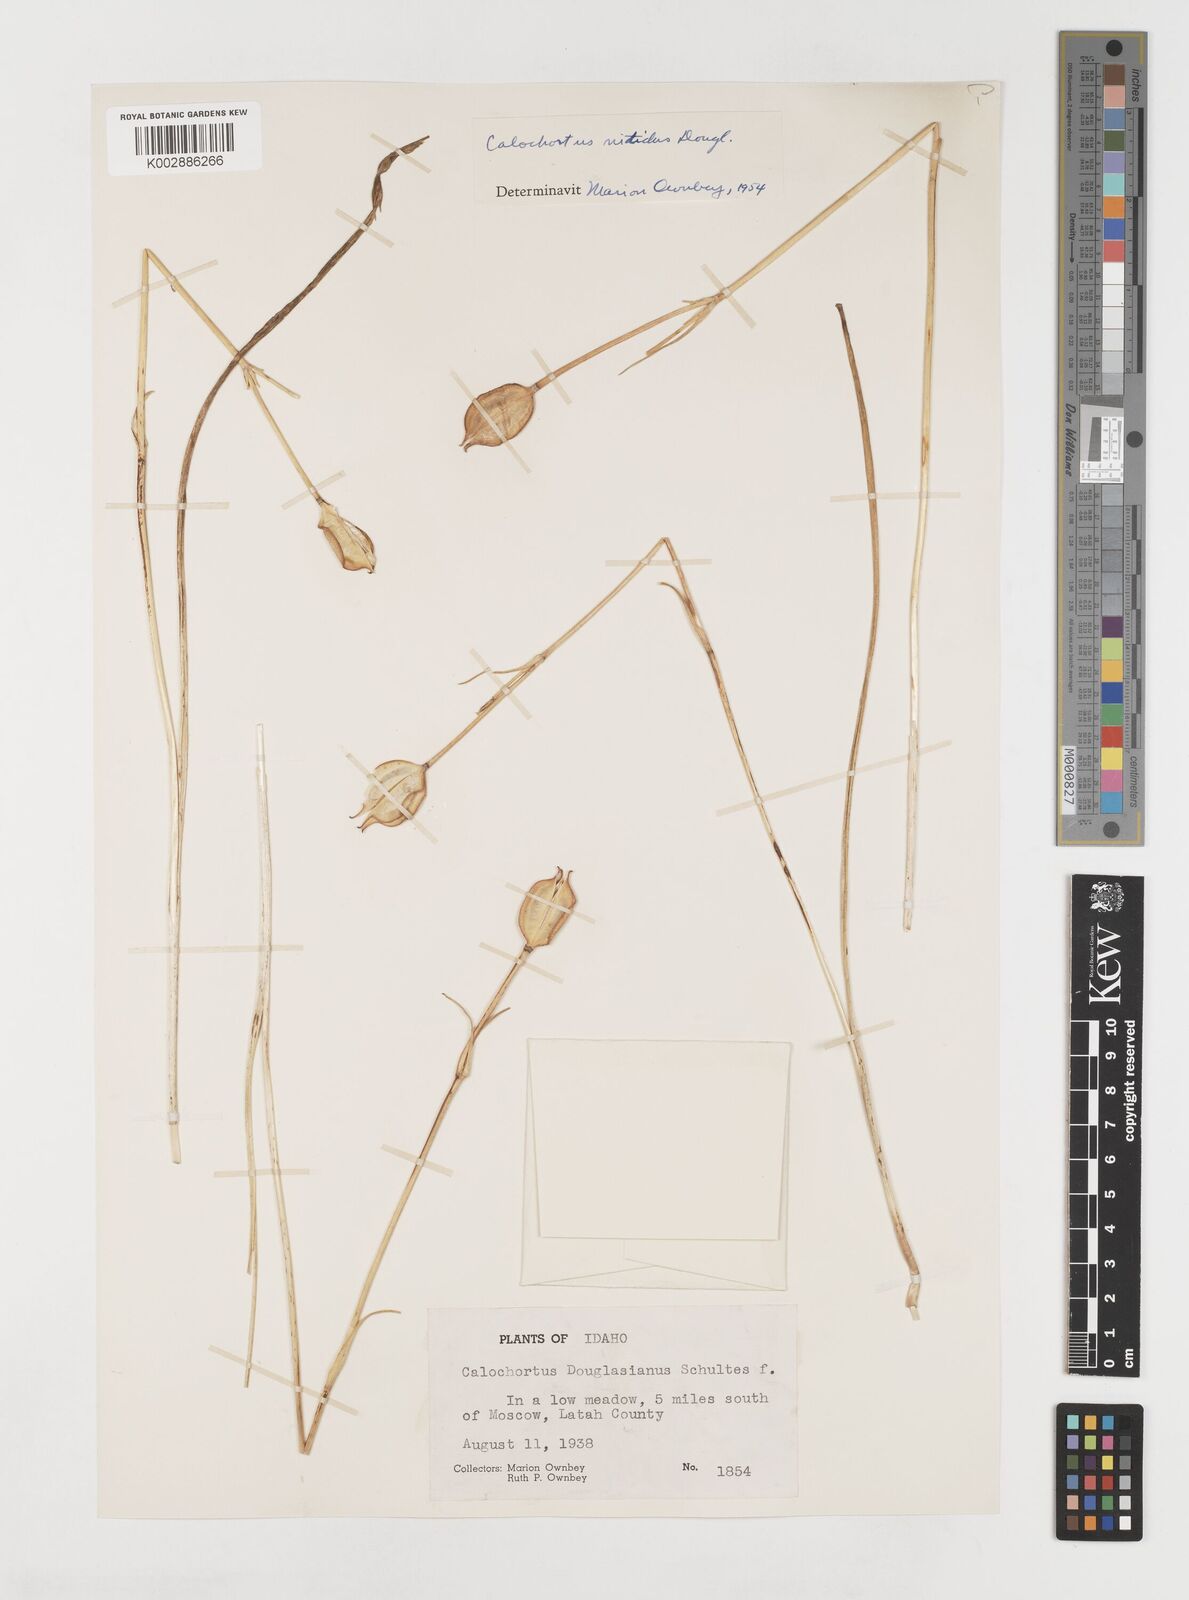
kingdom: Plantae
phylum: Tracheophyta
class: Liliopsida
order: Liliales
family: Liliaceae
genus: Calochortus
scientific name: Calochortus monophyllus
